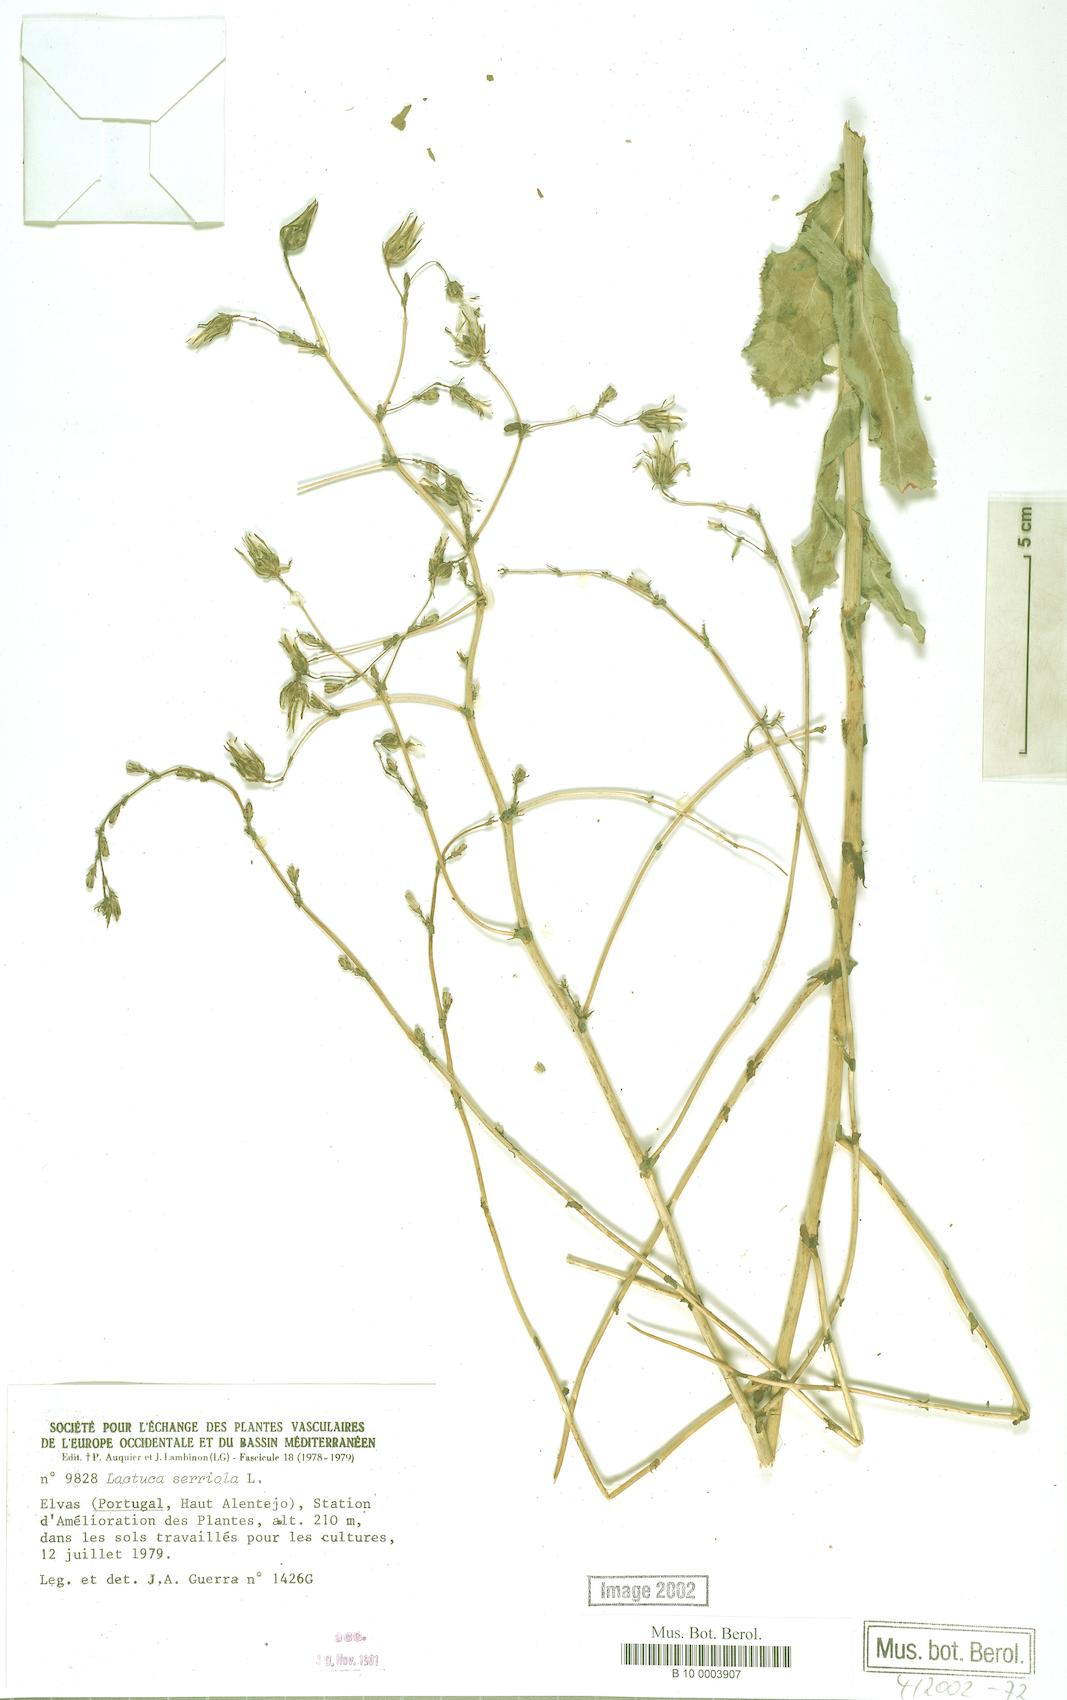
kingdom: Plantae
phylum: Tracheophyta
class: Magnoliopsida
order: Asterales
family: Asteraceae
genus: Lactuca
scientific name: Lactuca serriola
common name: Prickly lettuce
